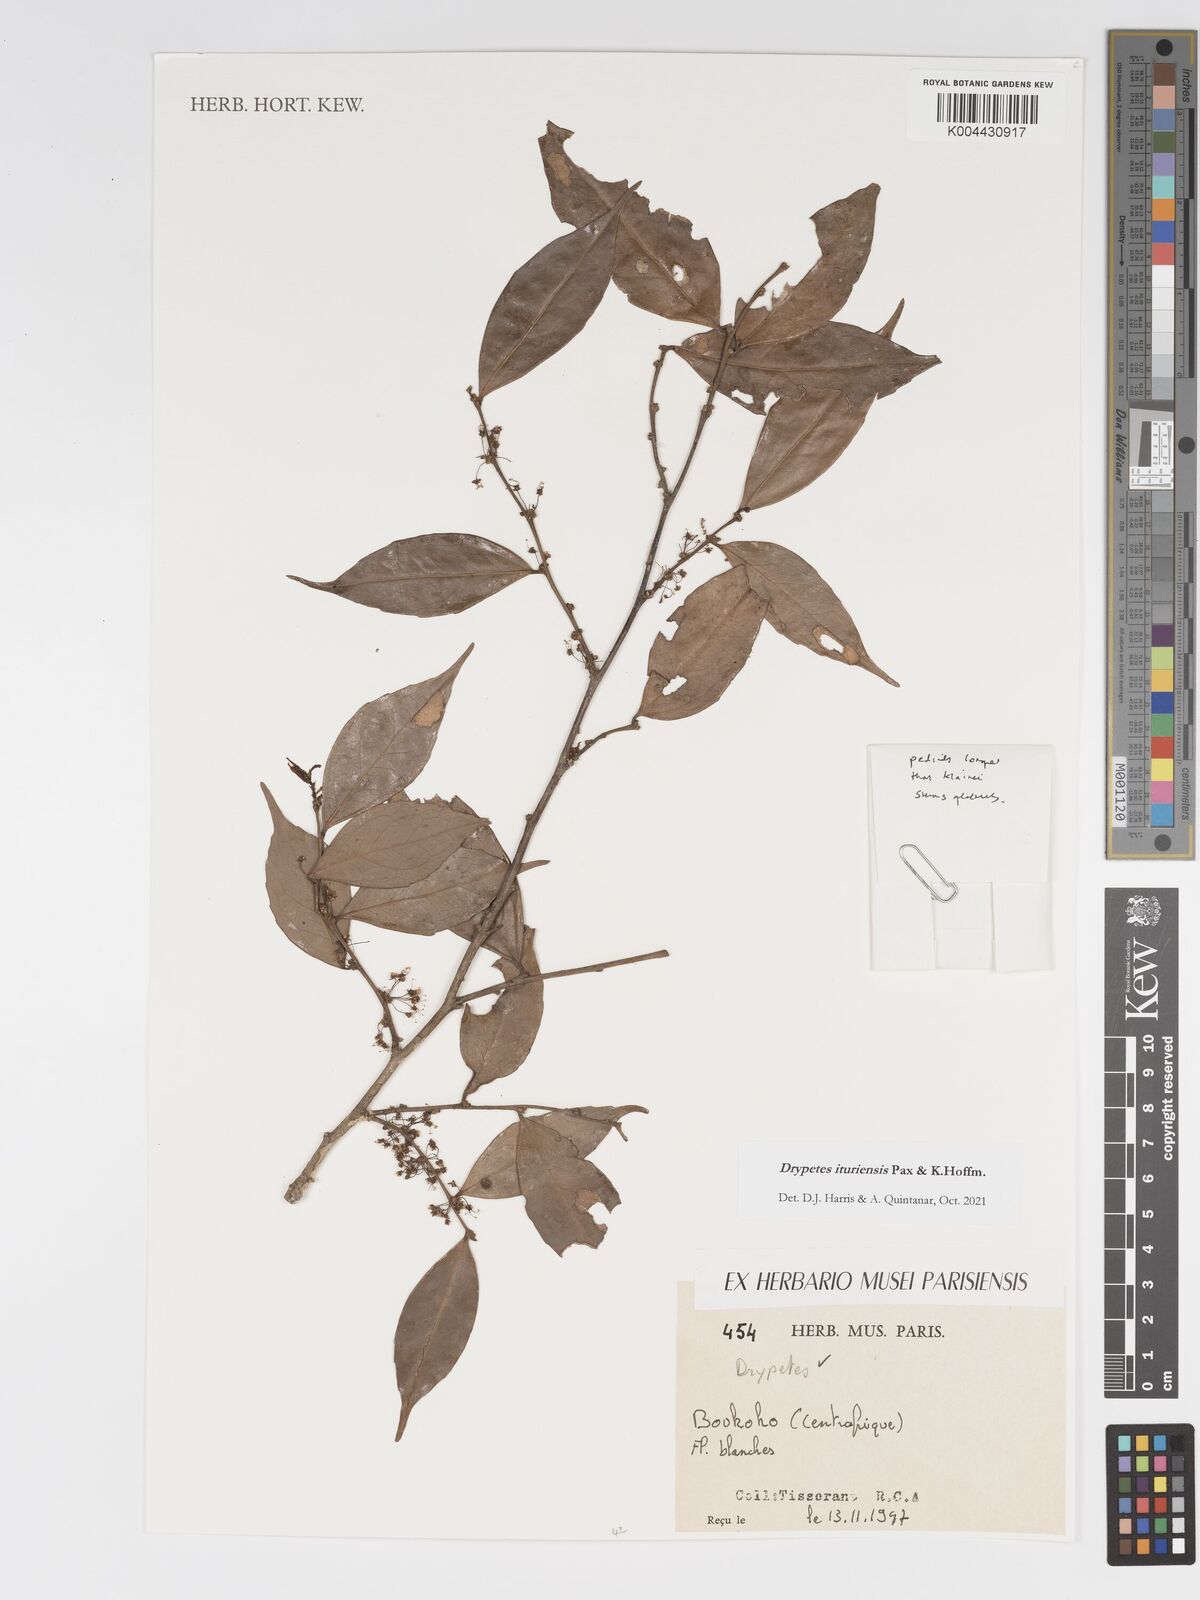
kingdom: Plantae
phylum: Tracheophyta
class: Magnoliopsida
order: Malpighiales
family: Putranjivaceae
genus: Drypetes
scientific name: Drypetes ituriensis
